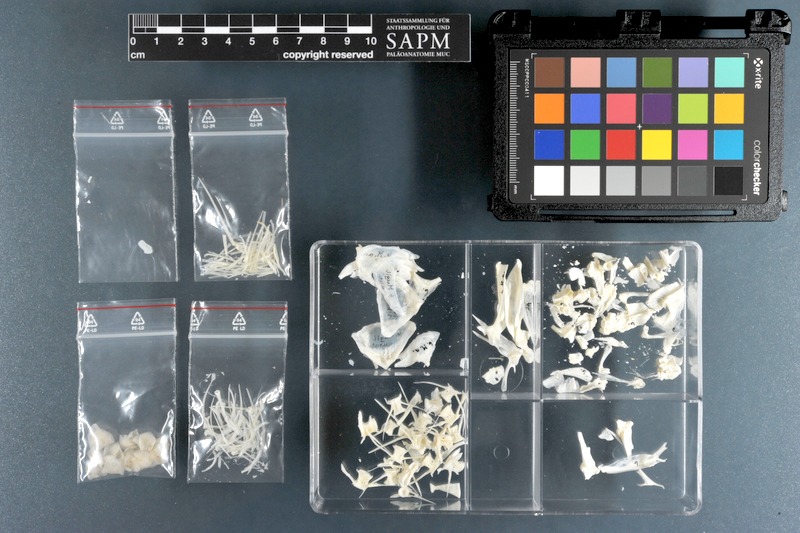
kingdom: Animalia
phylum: Chordata
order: Mugiliformes
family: Mugilidae
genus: Chelon
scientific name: Chelon auratus
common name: Golden grey mullet
